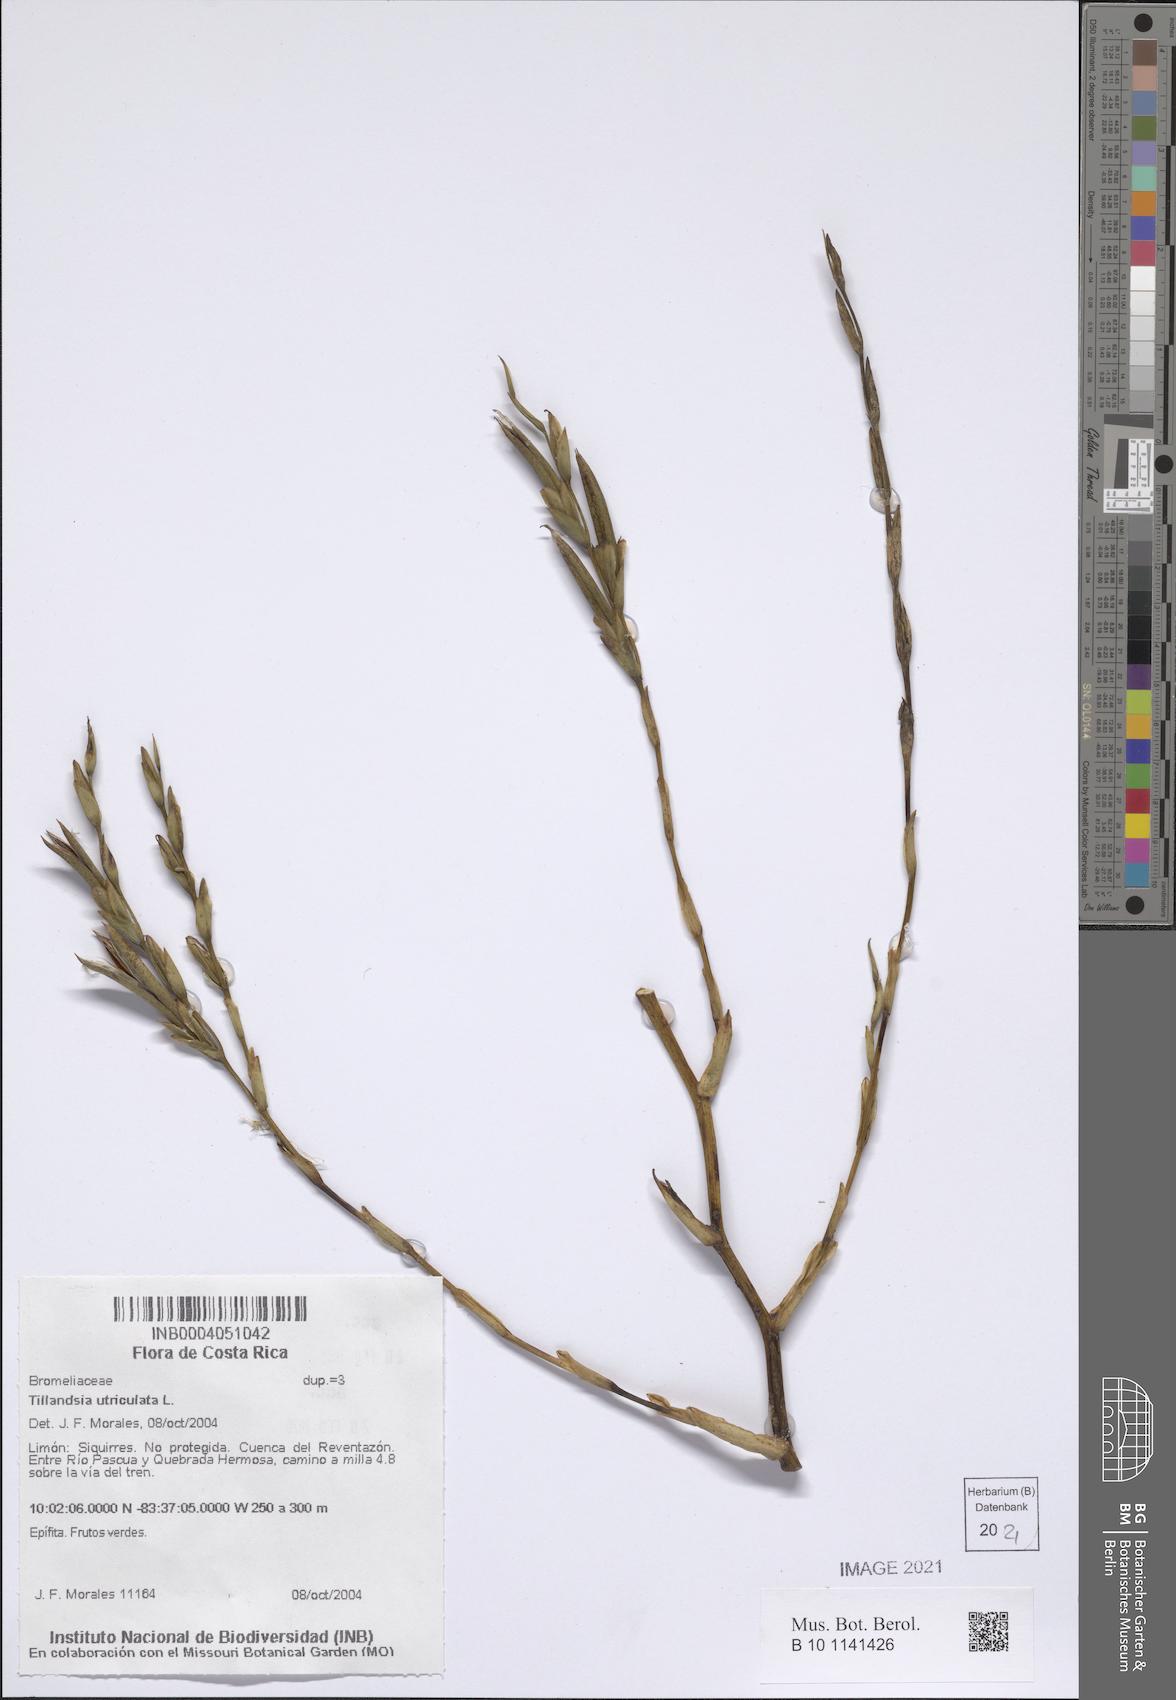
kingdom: Plantae
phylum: Tracheophyta
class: Liliopsida
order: Poales
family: Bromeliaceae
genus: Tillandsia
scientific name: Tillandsia utriculata
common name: Wild pine
